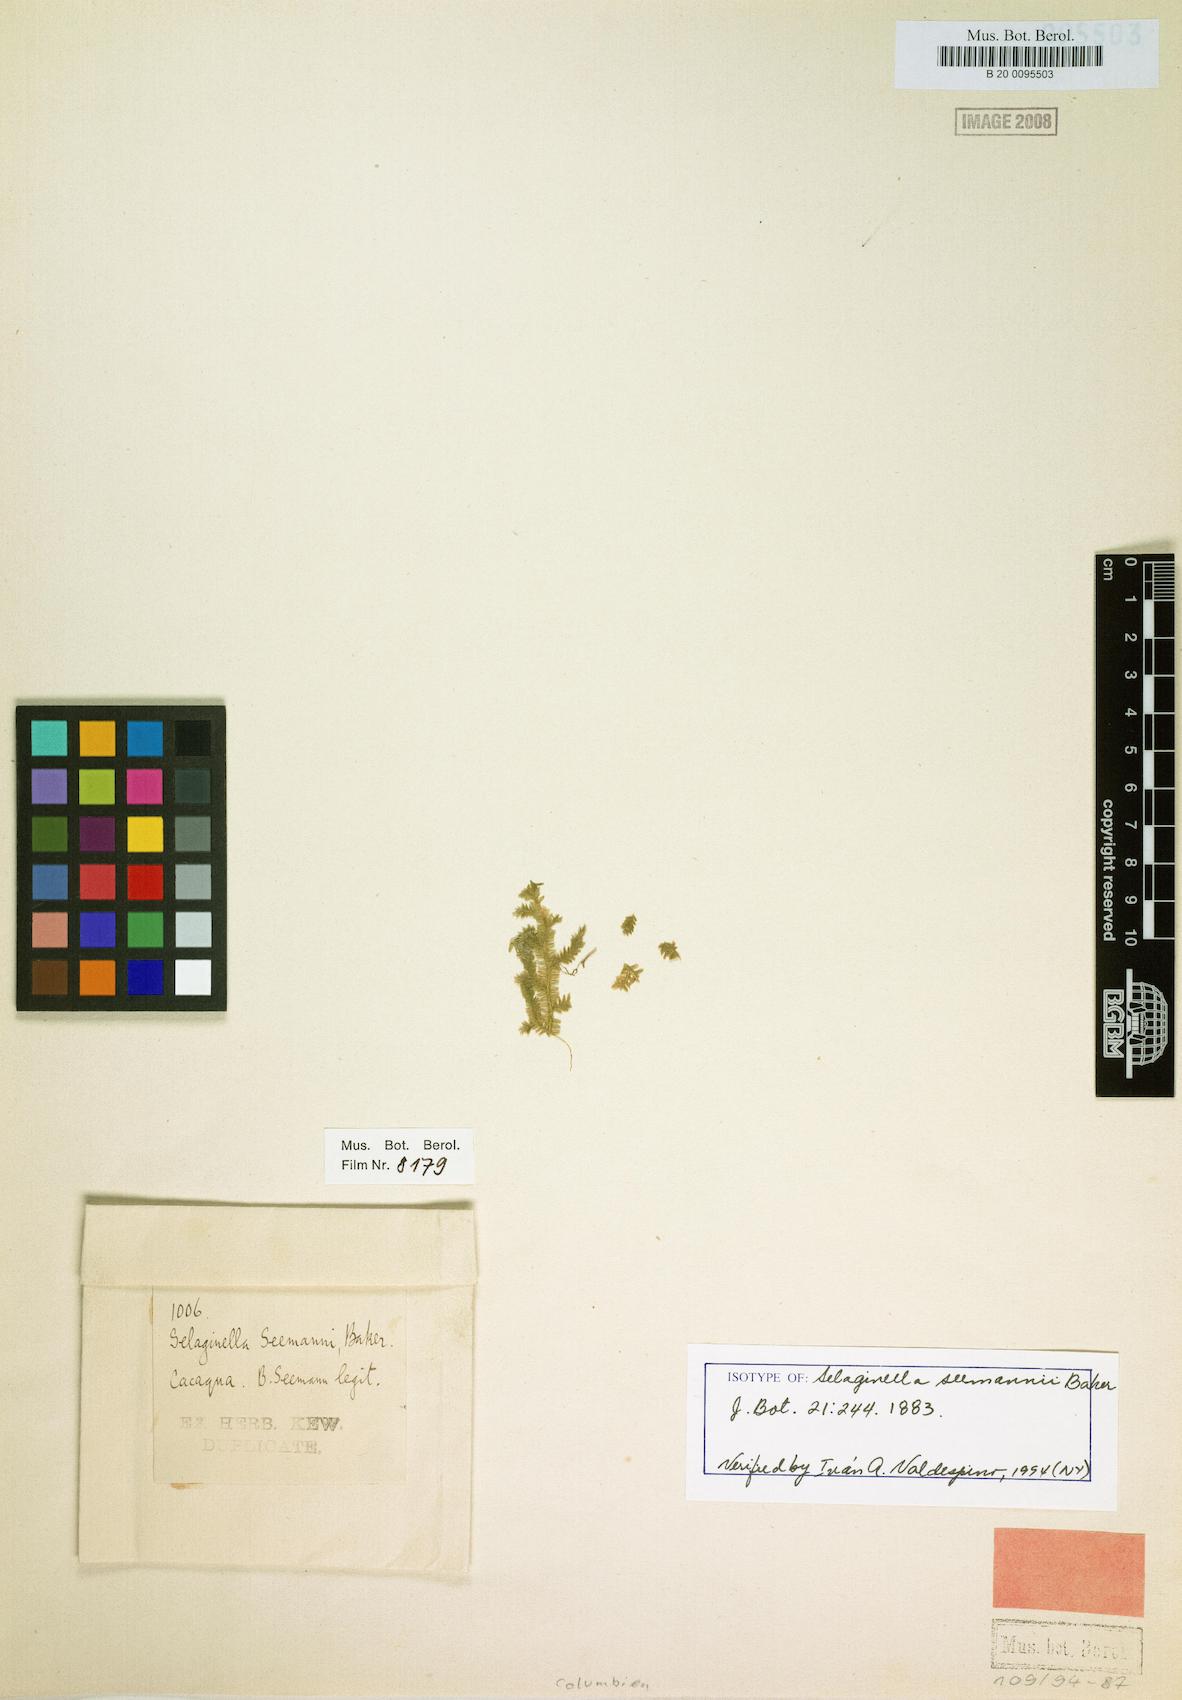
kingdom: Plantae
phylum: Tracheophyta
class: Lycopodiopsida
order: Selaginellales
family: Selaginellaceae
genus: Selaginella
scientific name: Selaginella seemannii
